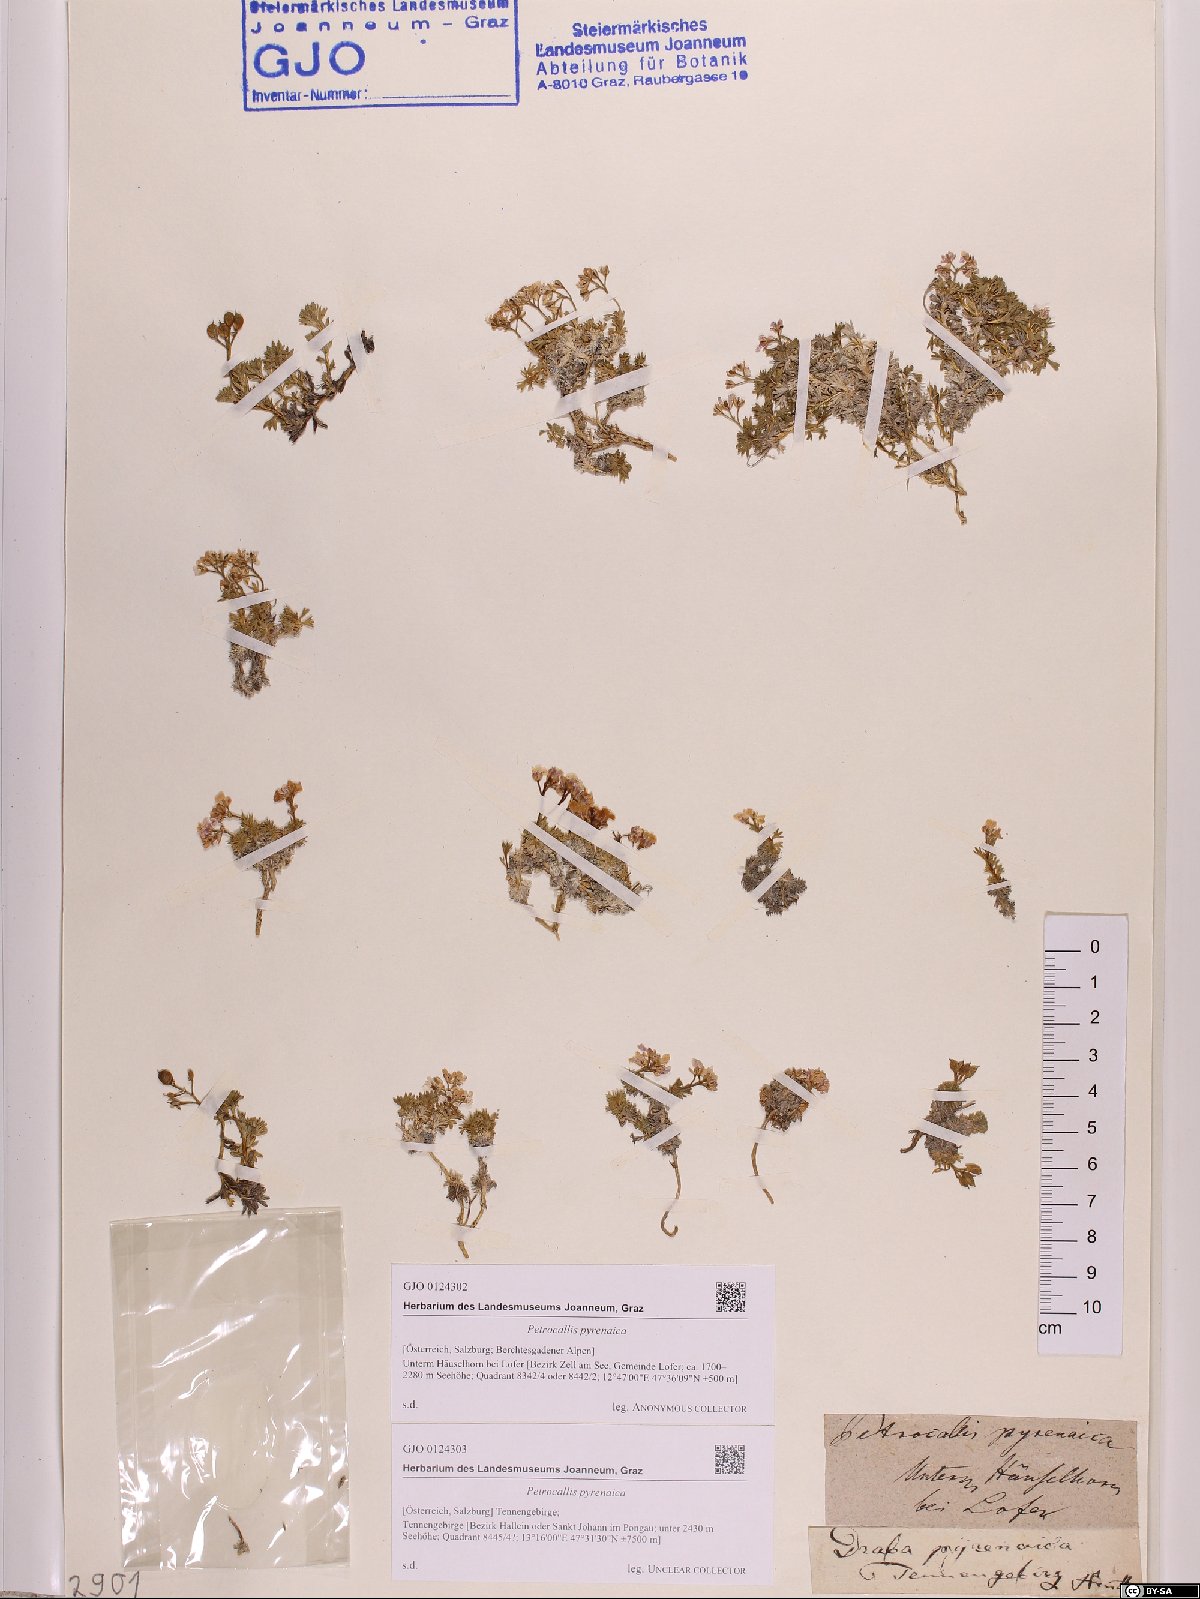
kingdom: Plantae
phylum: Tracheophyta
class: Magnoliopsida
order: Brassicales
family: Brassicaceae
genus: Petrocallis
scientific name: Petrocallis pyrenaica
